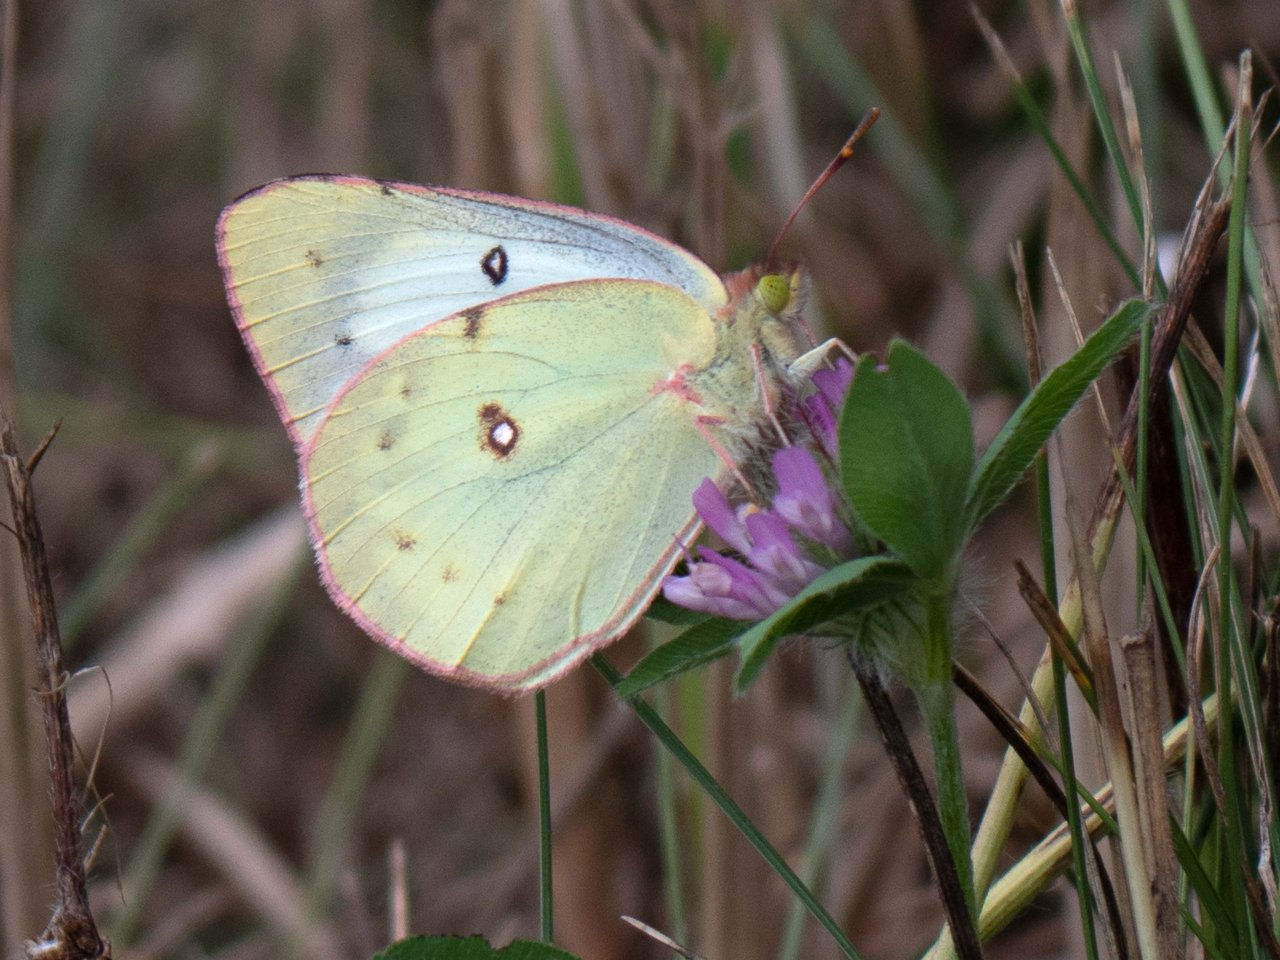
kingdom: Animalia
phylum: Arthropoda
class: Insecta
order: Lepidoptera
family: Pieridae
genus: Colias
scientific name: Colias philodice
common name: Clouded Sulphur
